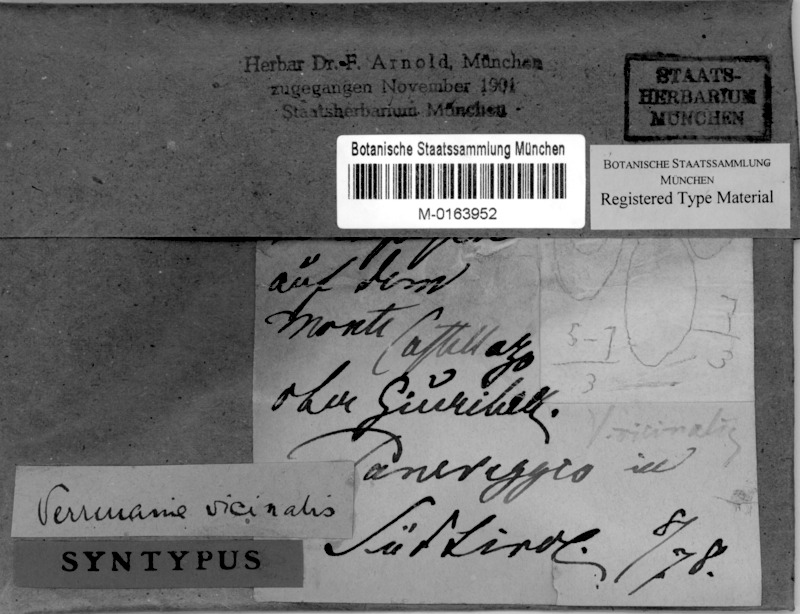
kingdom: Fungi
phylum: Ascomycota
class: Eurotiomycetes
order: Verrucariales
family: Verrucariaceae
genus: Verrucaria
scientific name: Verrucaria vicinalis
